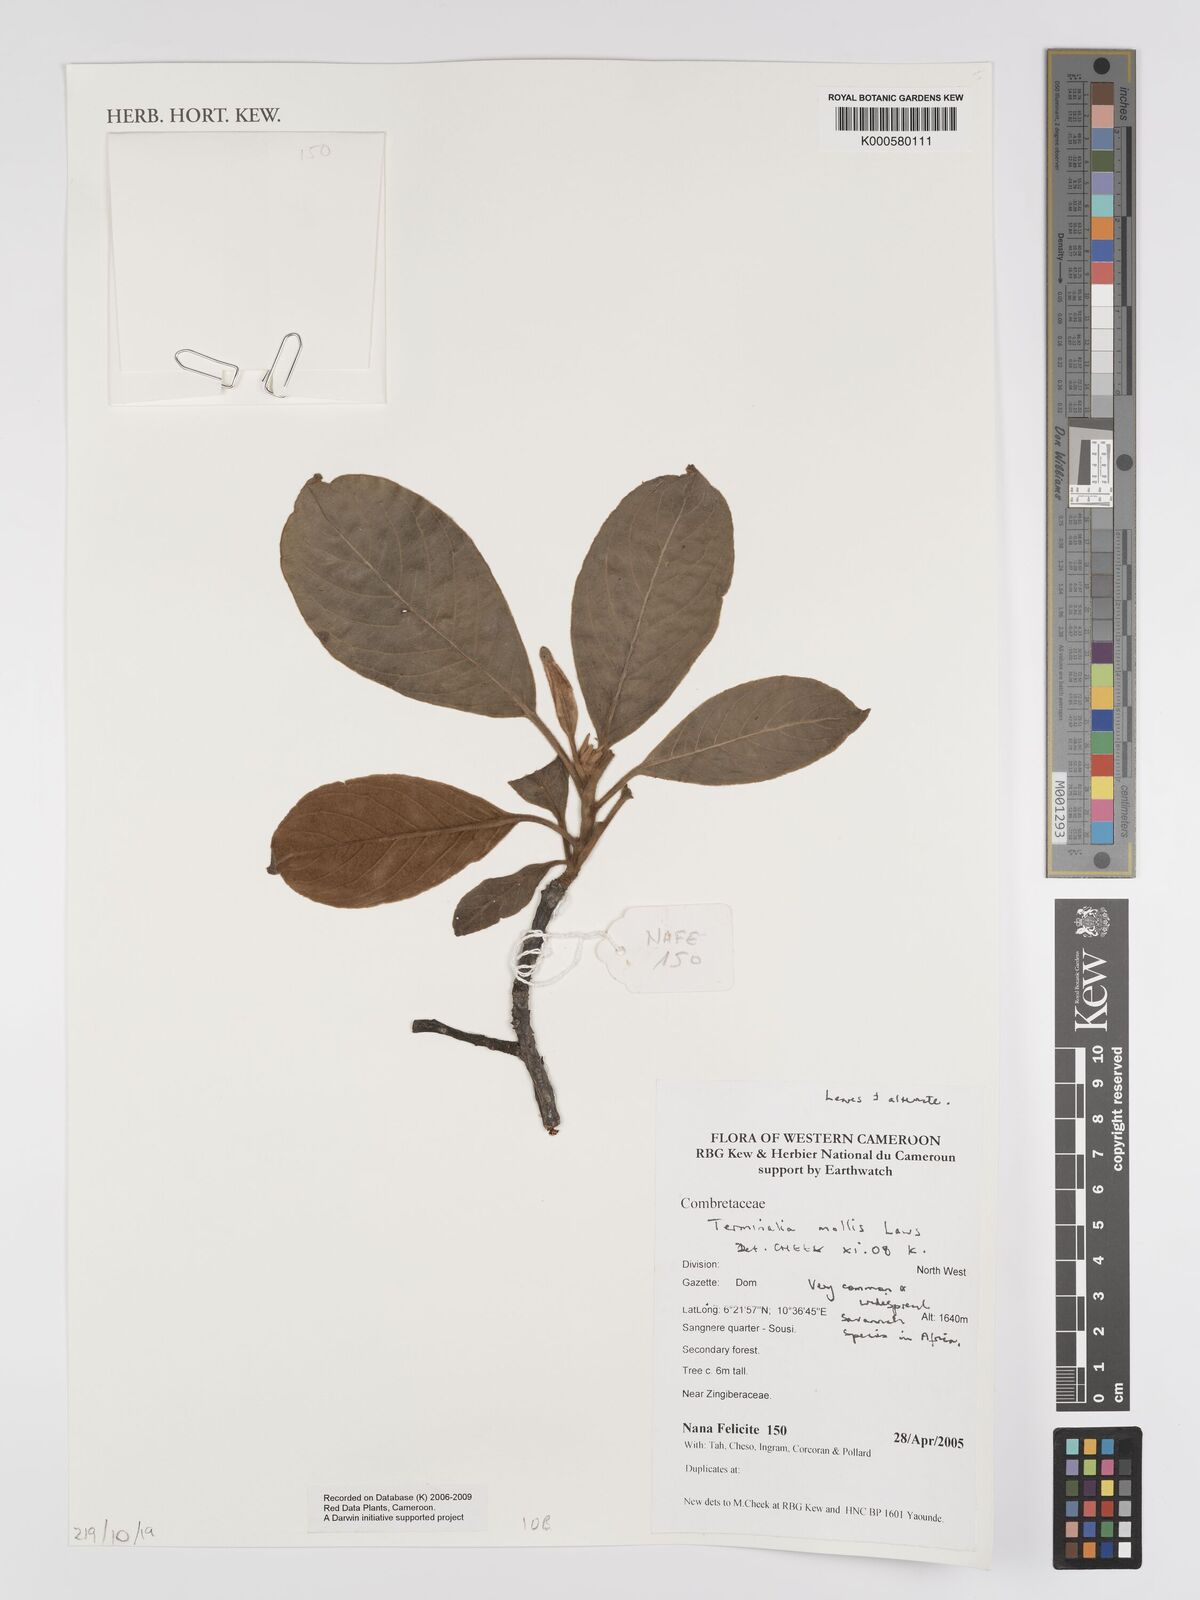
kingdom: Plantae
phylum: Tracheophyta
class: Magnoliopsida
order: Myrtales
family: Combretaceae
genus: Terminalia
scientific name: Terminalia mollis
